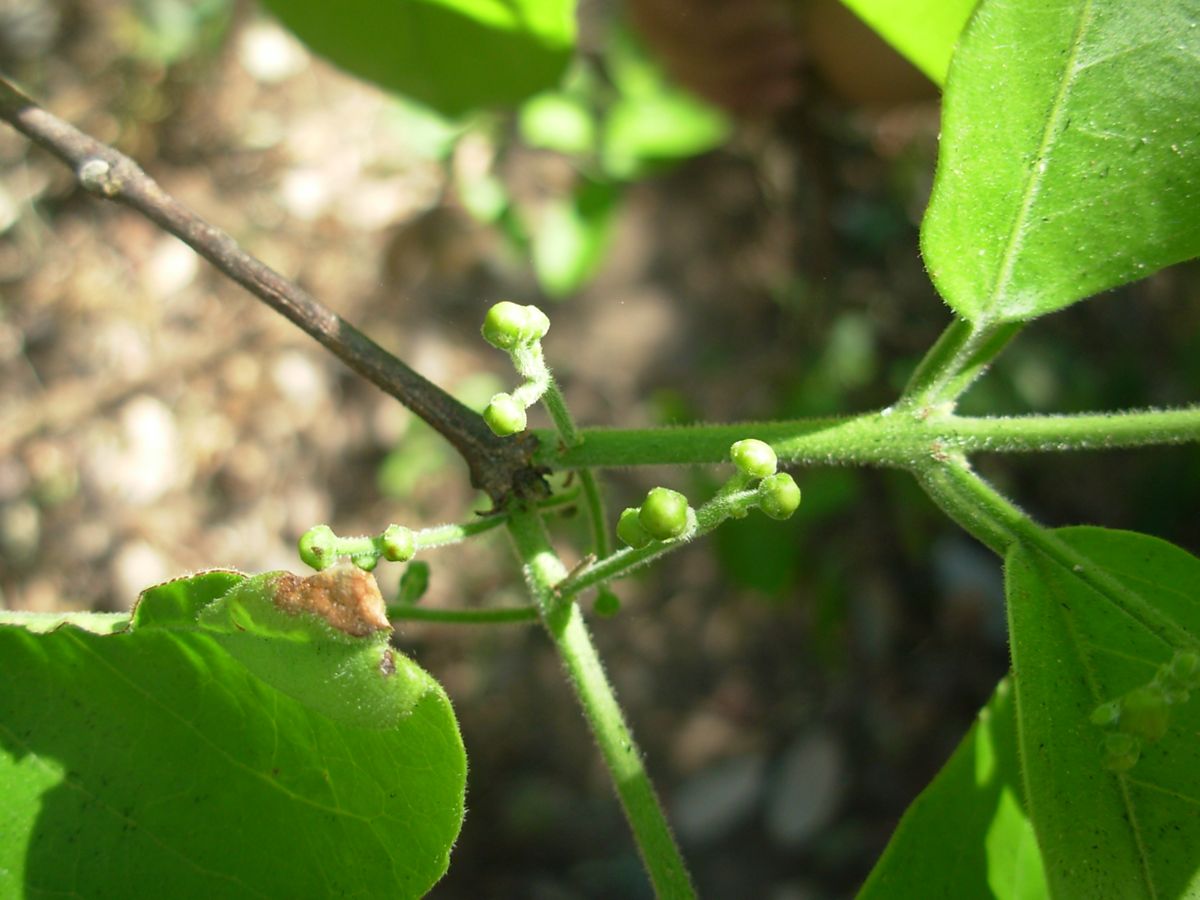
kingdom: Plantae
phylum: Tracheophyta
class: Magnoliopsida
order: Celastrales
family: Celastraceae
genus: Semialarium
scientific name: Semialarium mexicanum
